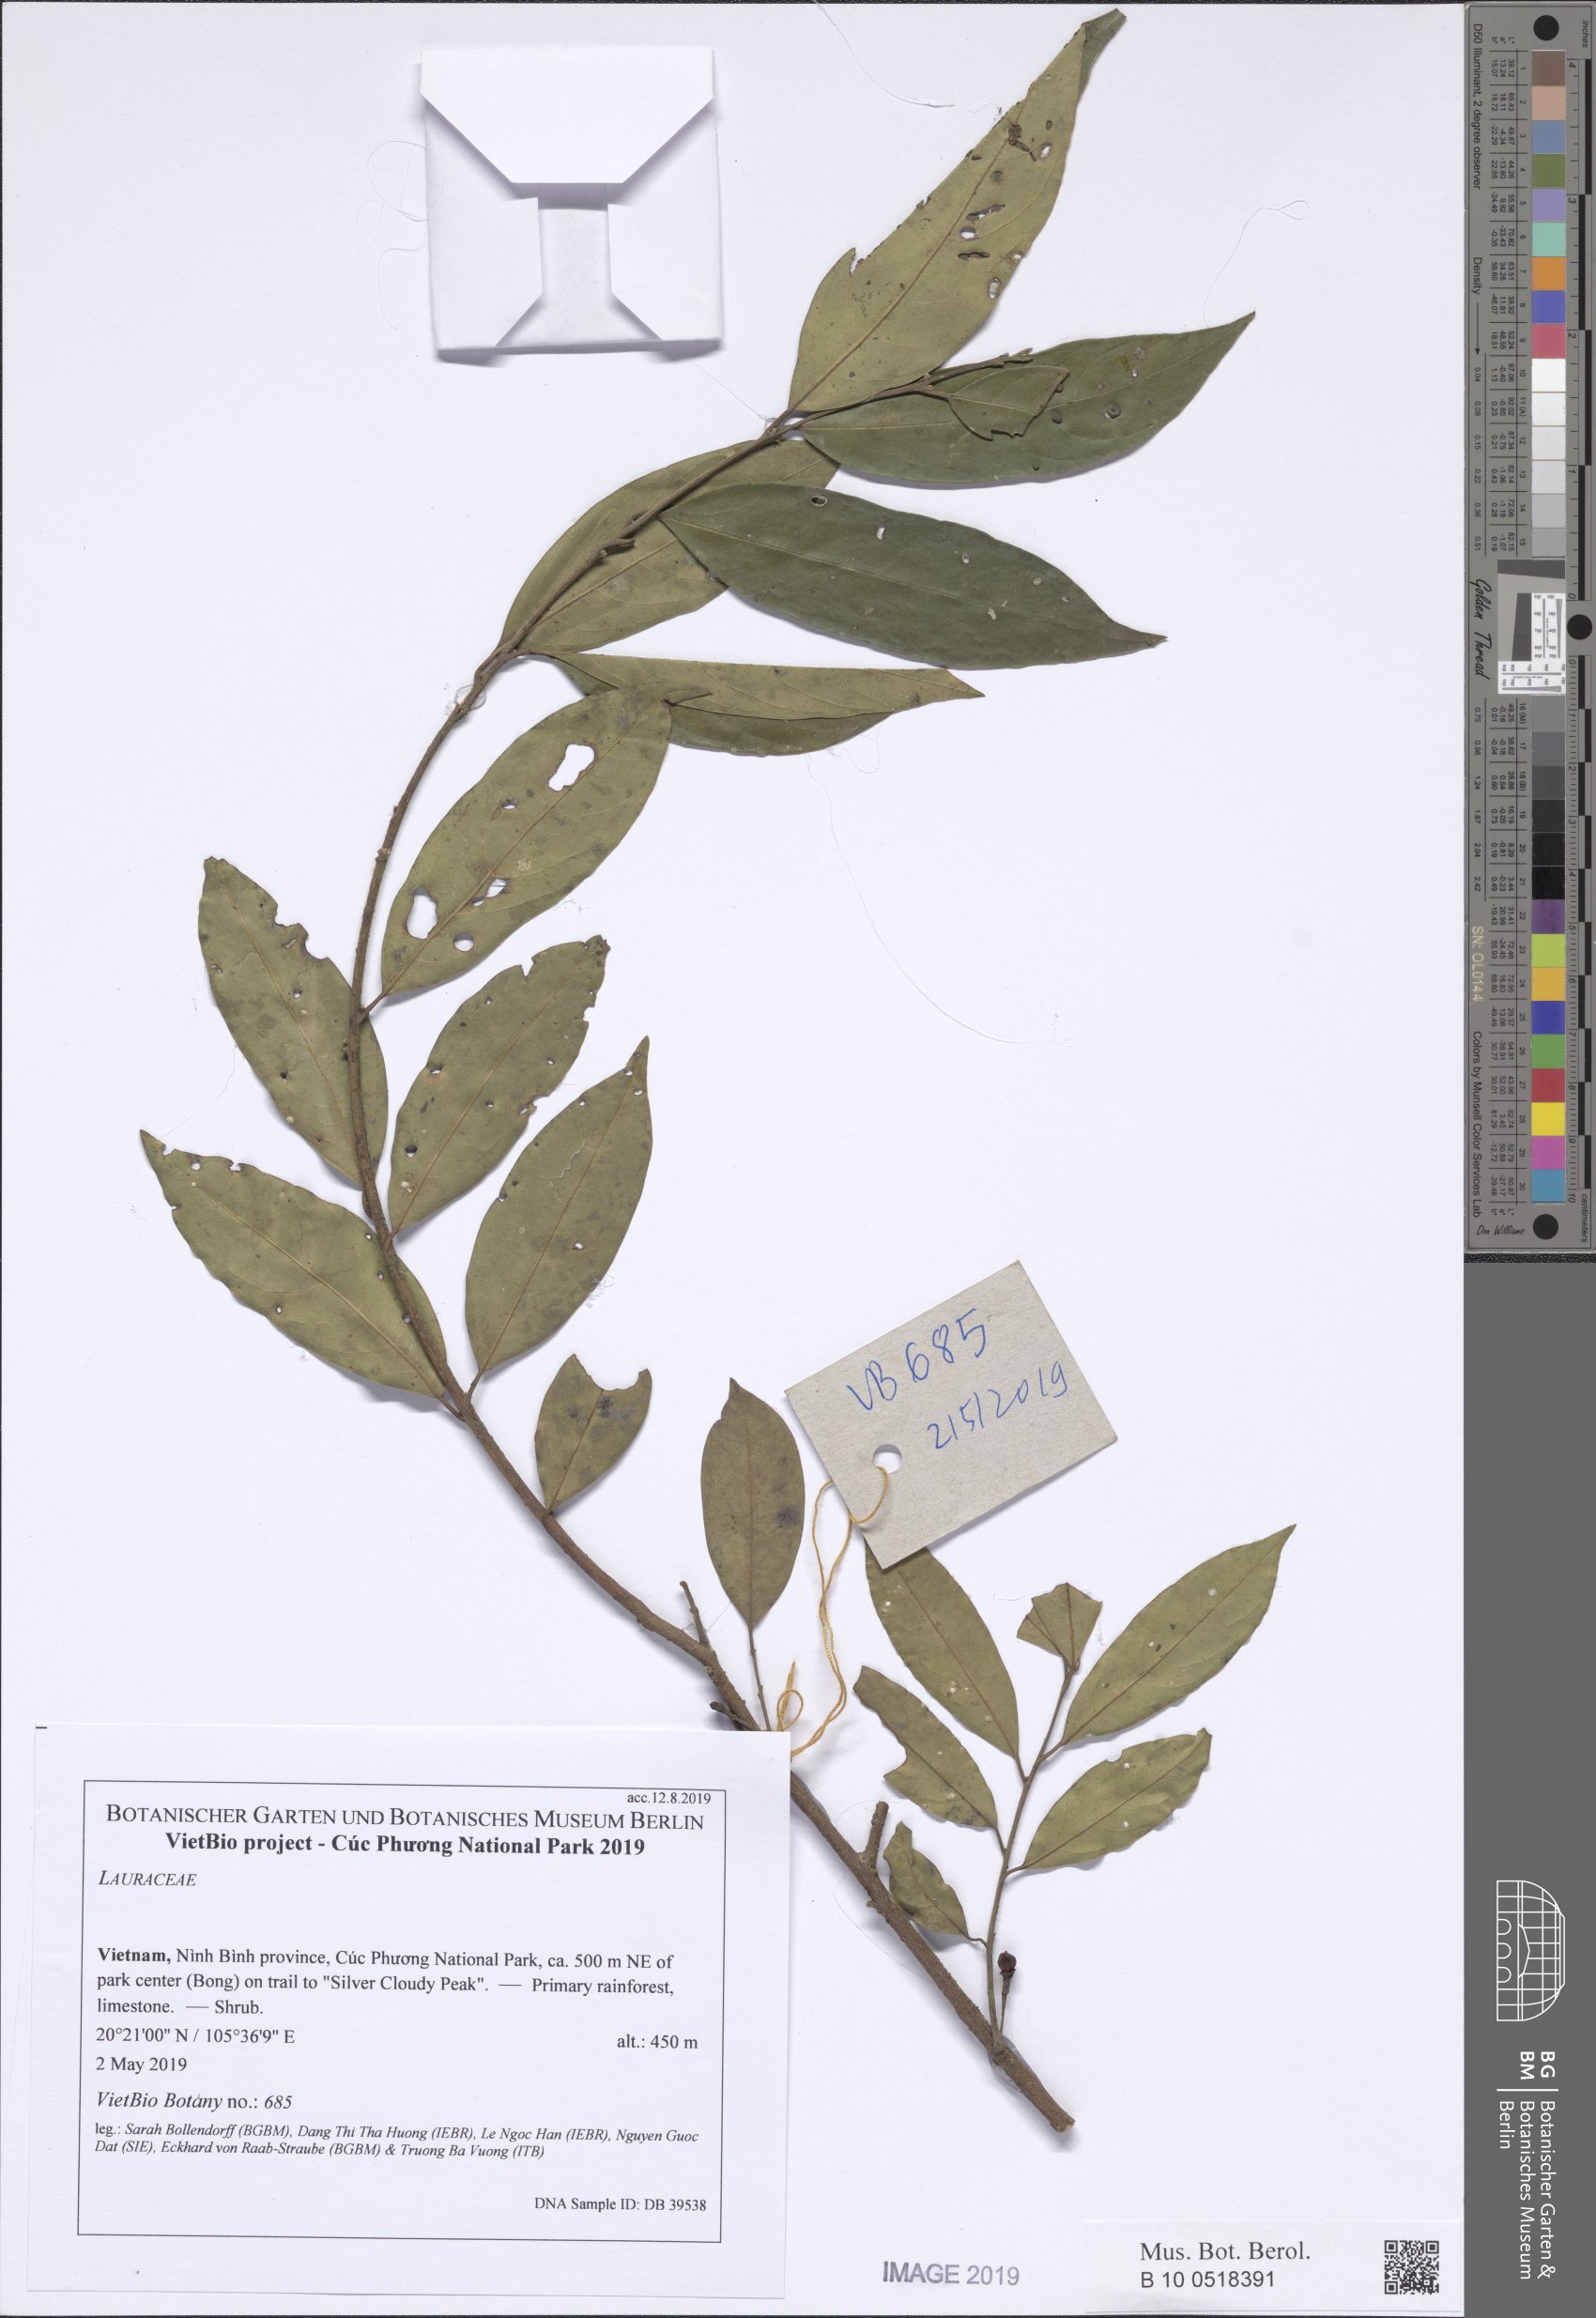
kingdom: Plantae
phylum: Tracheophyta
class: Magnoliopsida
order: Laurales
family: Lauraceae
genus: Dehaasia
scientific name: Dehaasia
